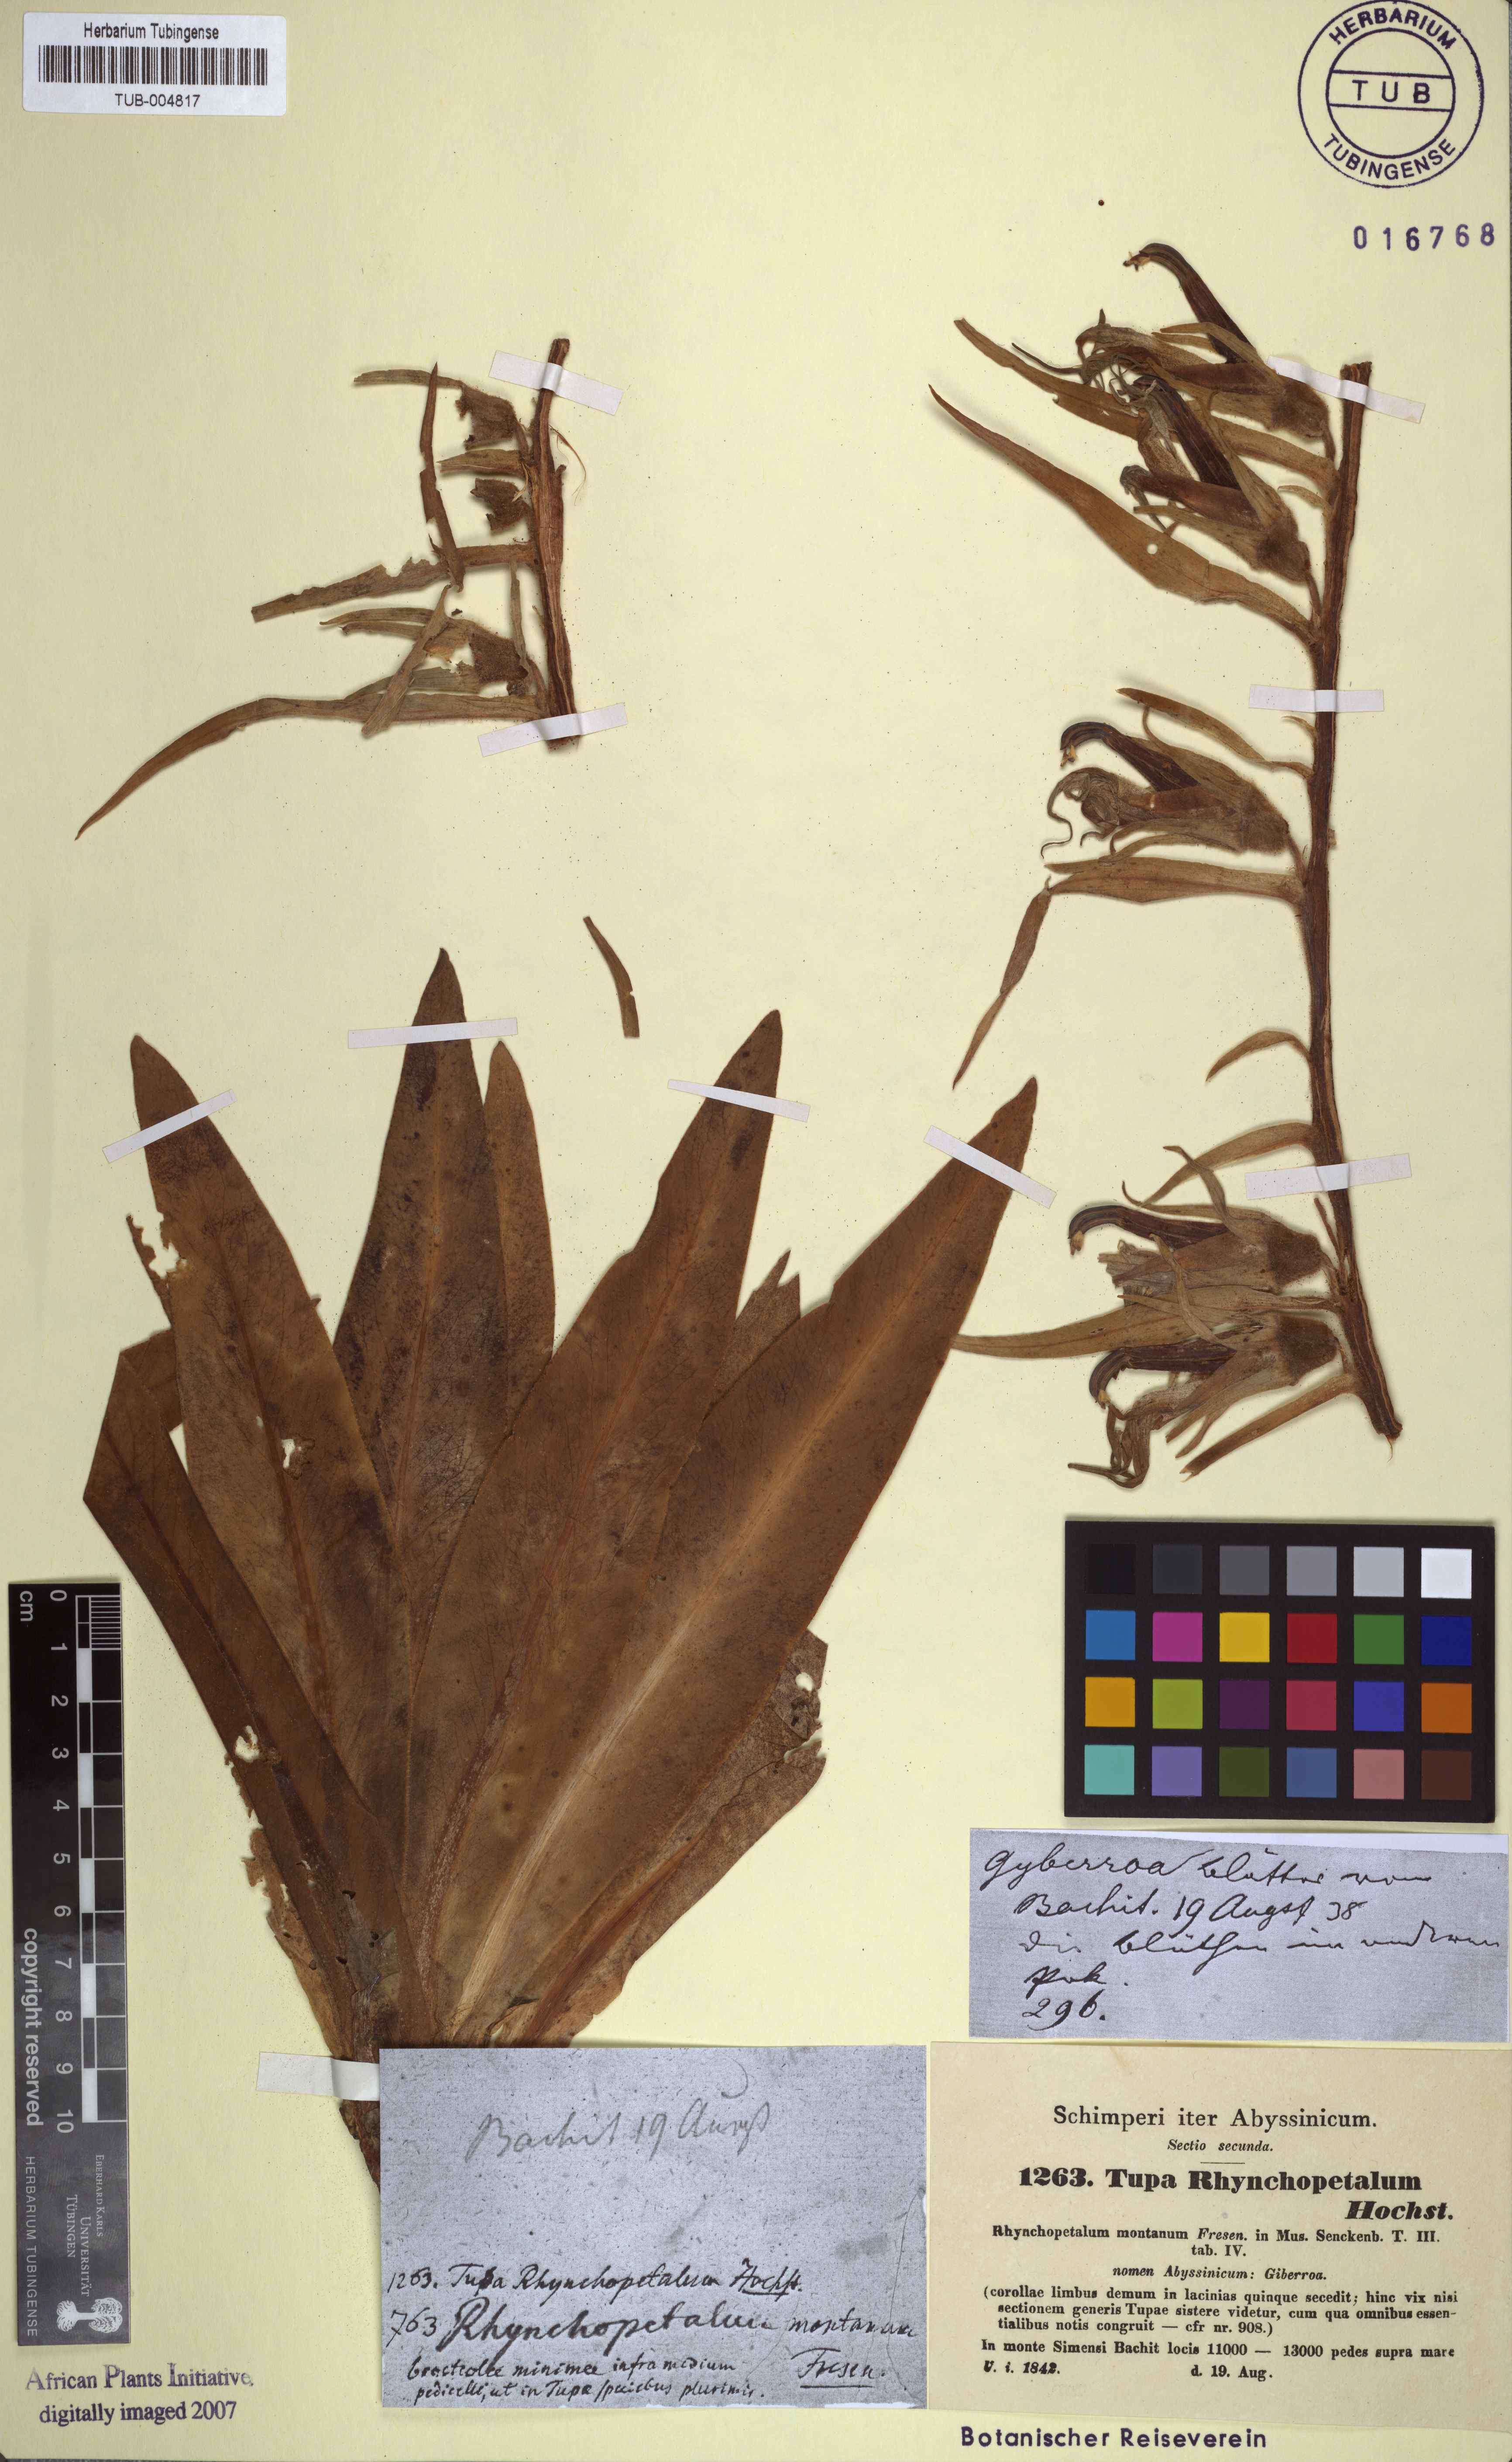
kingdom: Plantae
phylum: Tracheophyta
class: Magnoliopsida
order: Asterales
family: Campanulaceae
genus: Lobelia
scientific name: Lobelia rhynchopetalum
